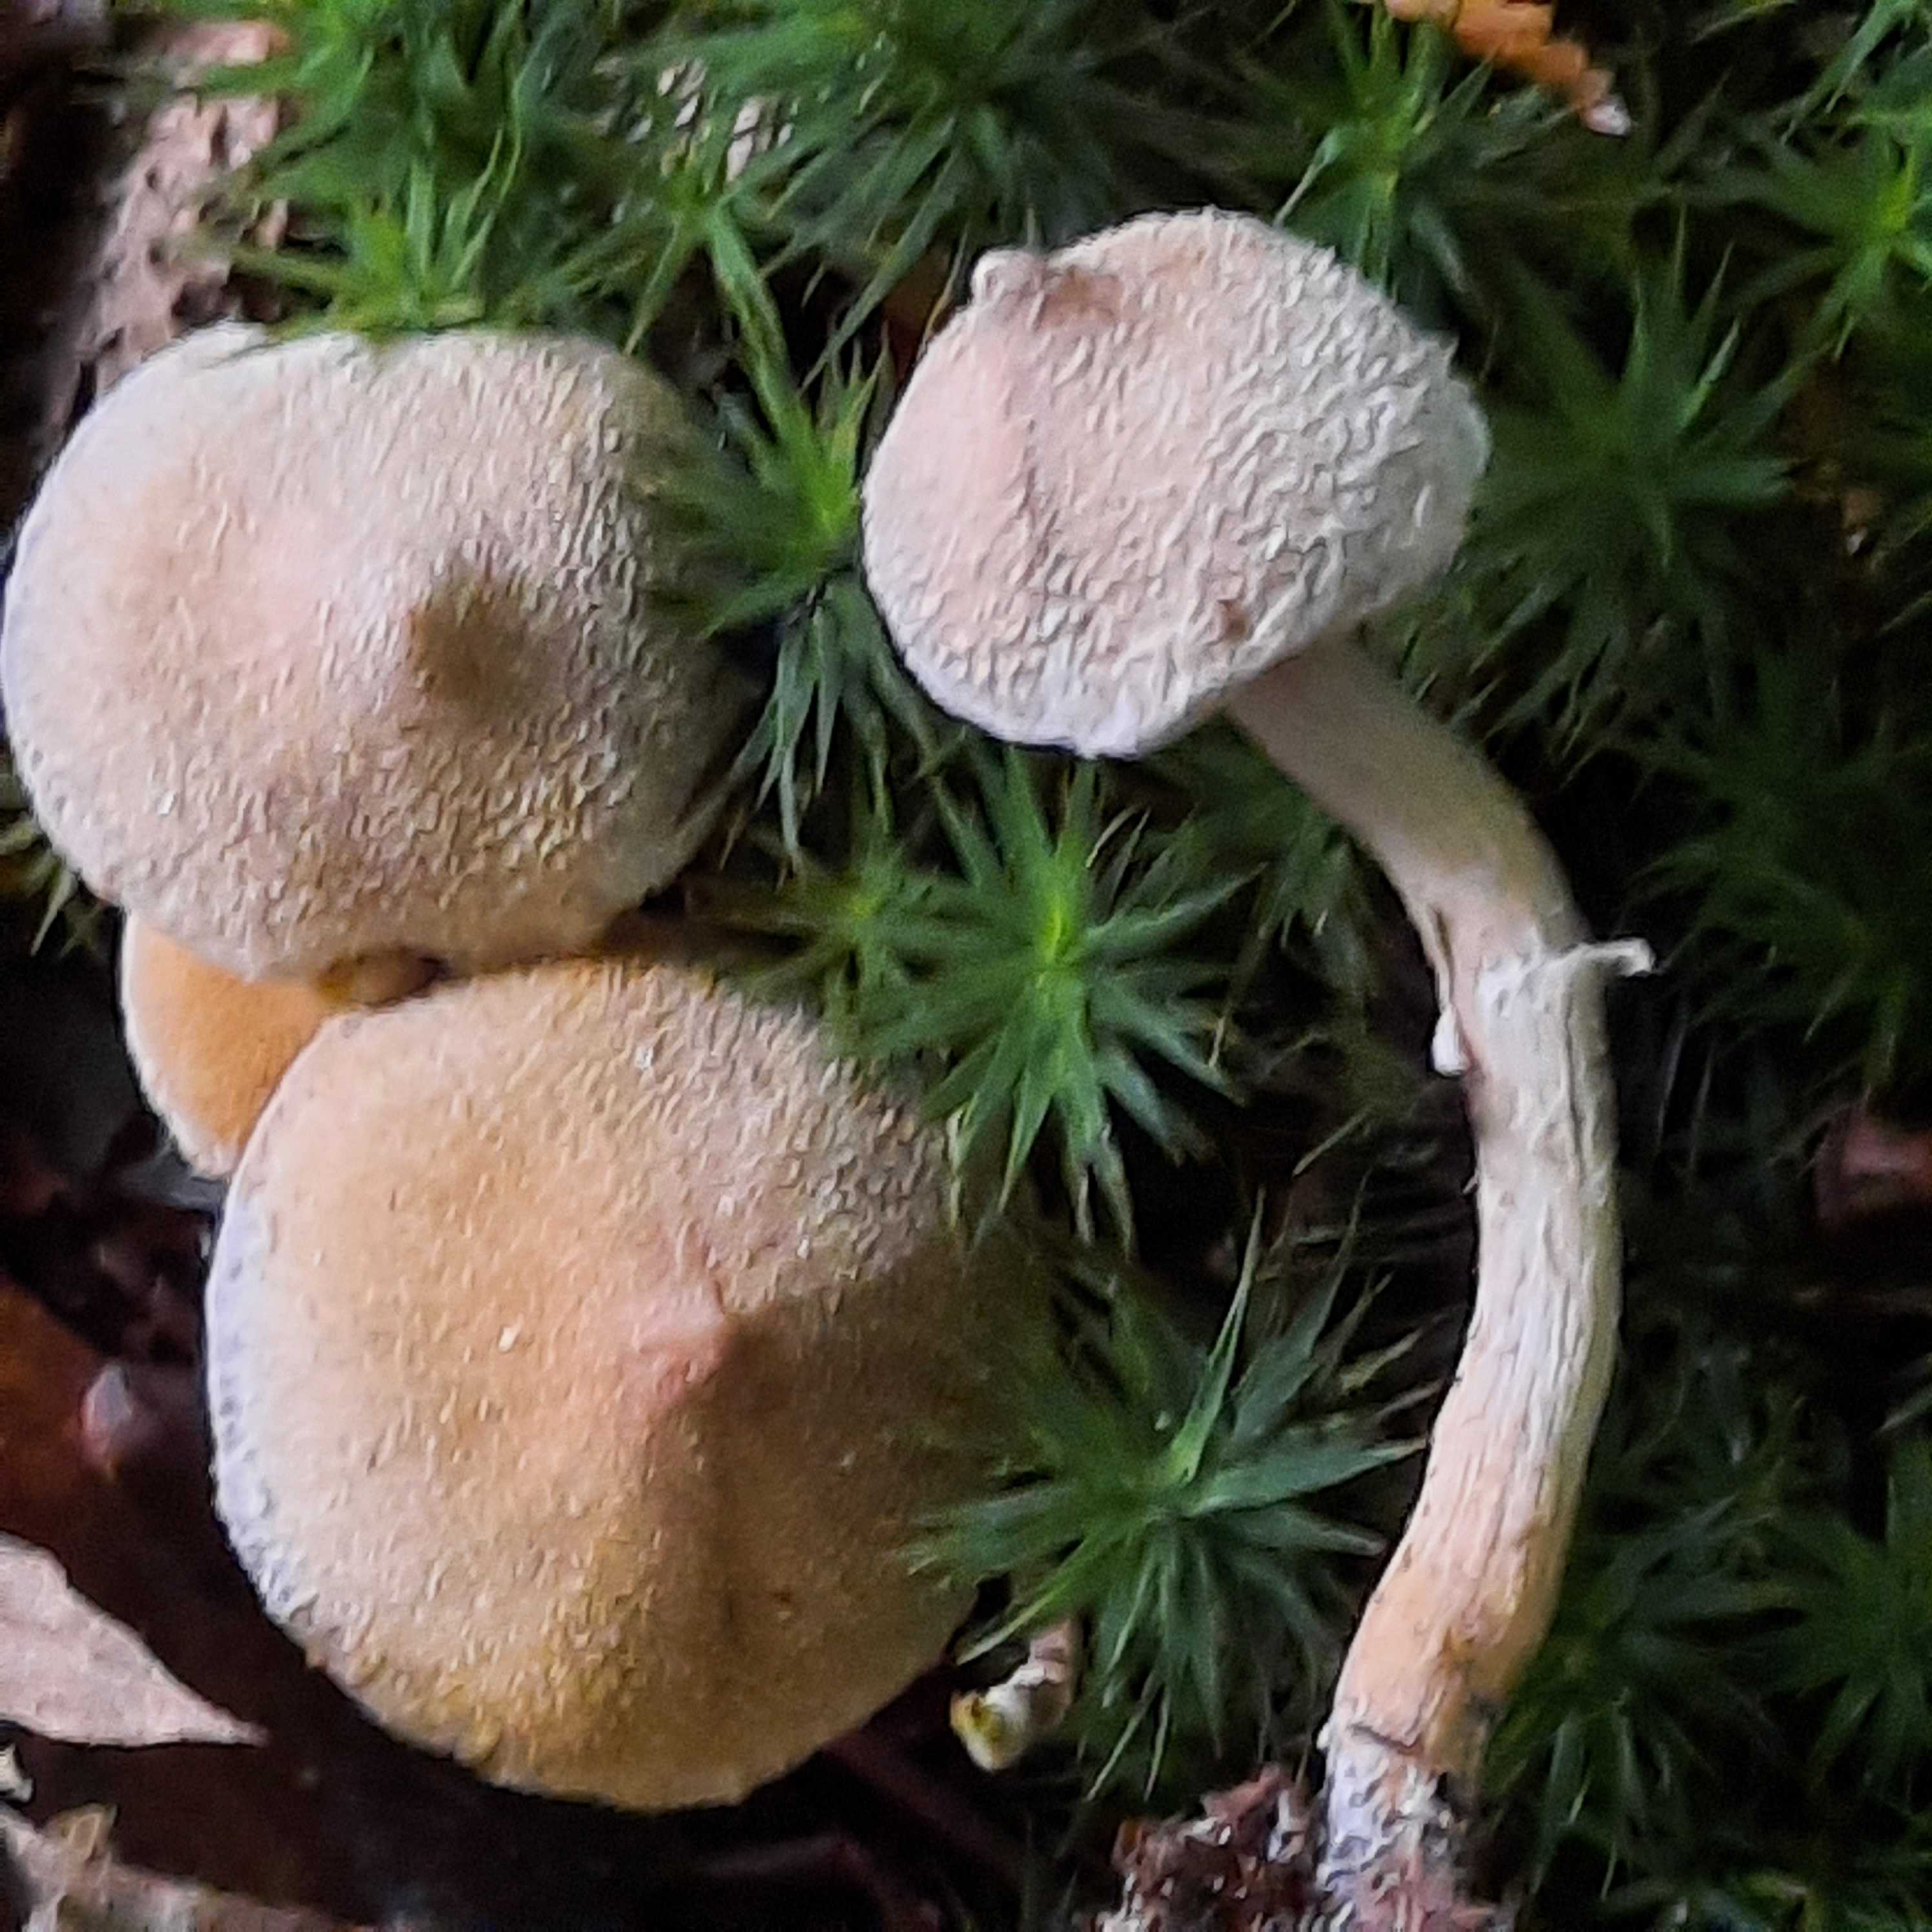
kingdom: Fungi
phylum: Basidiomycota
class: Agaricomycetes
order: Agaricales
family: Cortinariaceae
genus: Cortinarius
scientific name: Cortinarius
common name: pelargonie-slørhat
